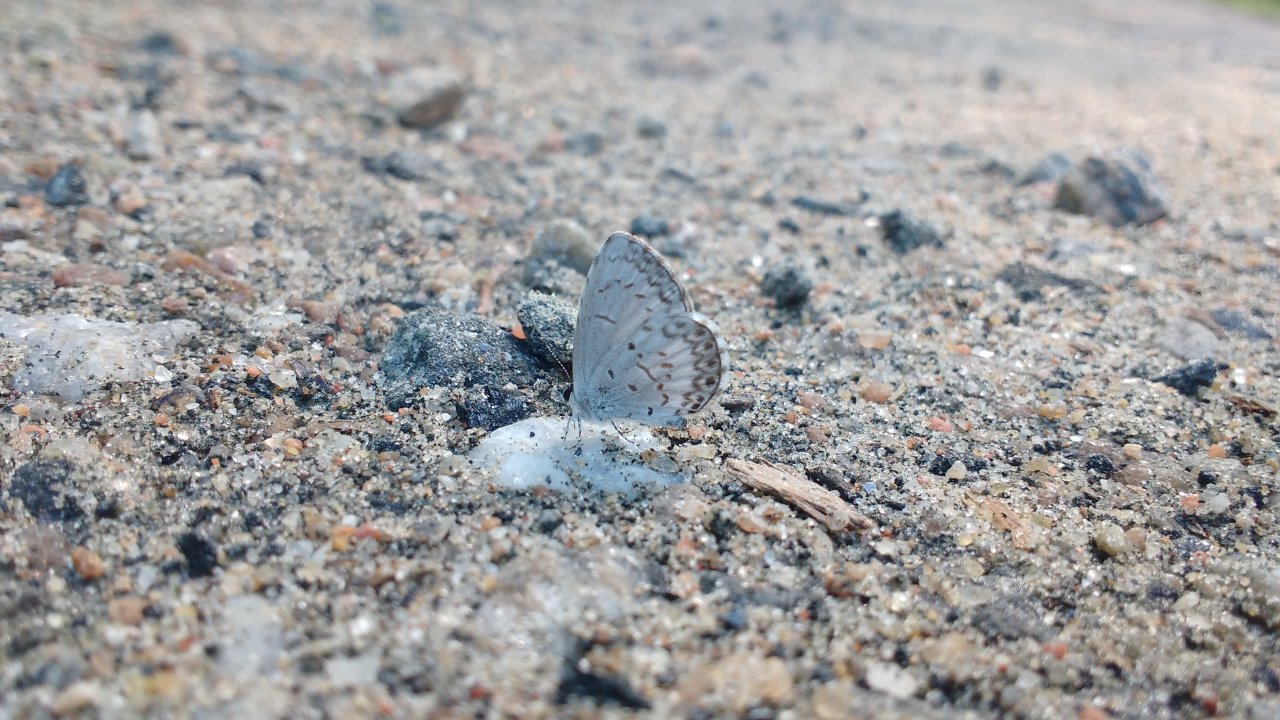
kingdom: Animalia
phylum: Arthropoda
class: Insecta
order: Lepidoptera
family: Lycaenidae
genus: Celastrina
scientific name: Celastrina lucia
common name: Northern Spring Azure
